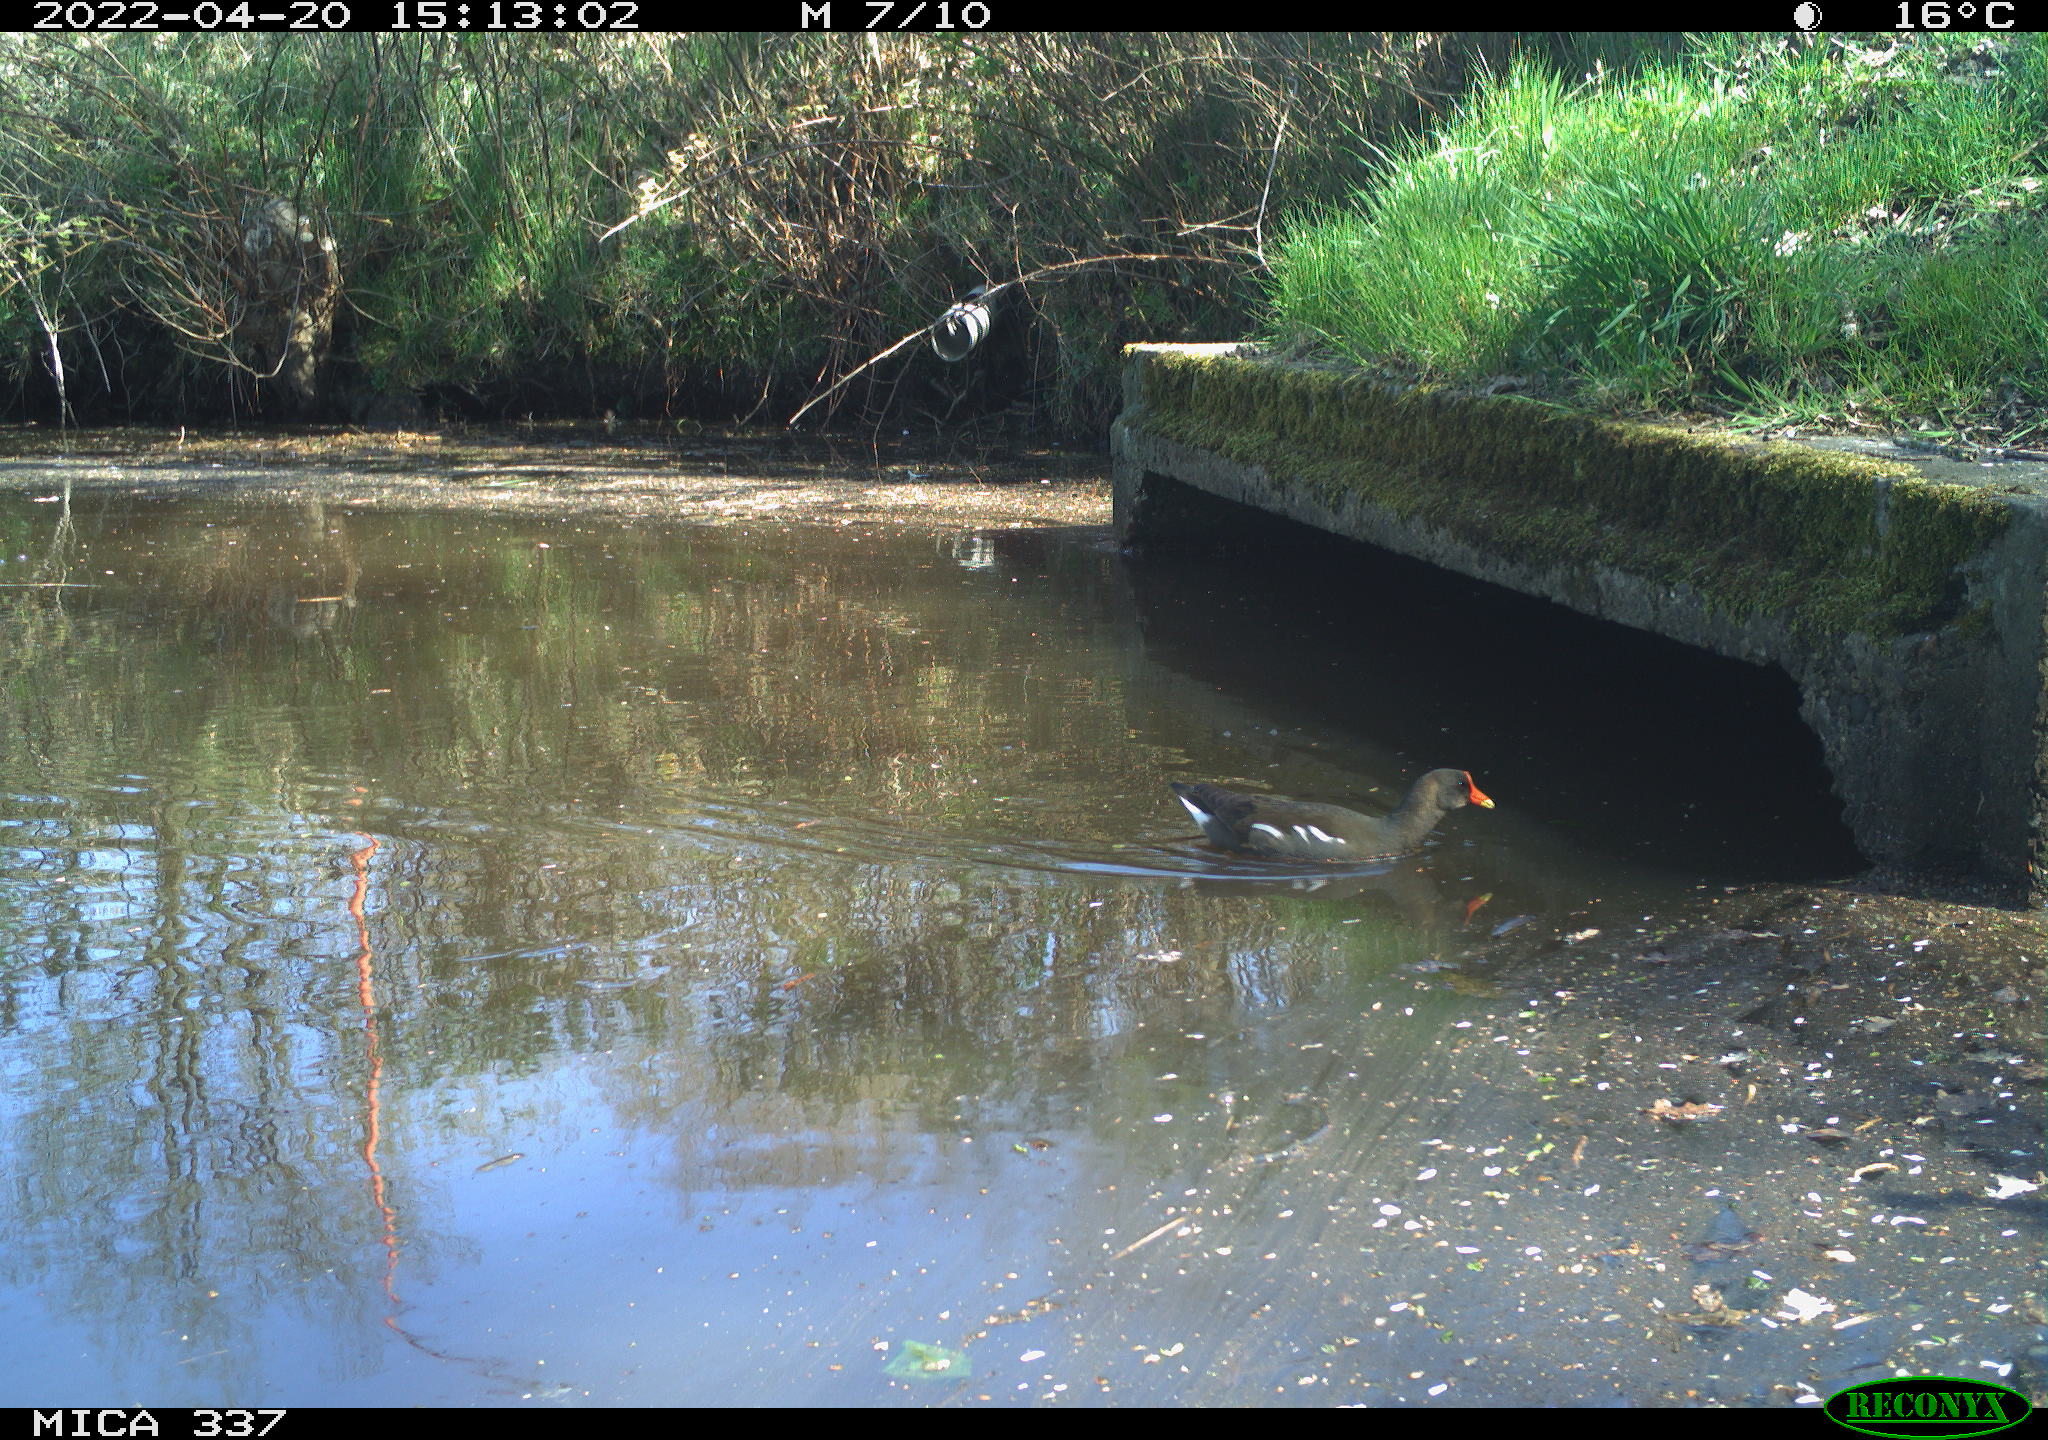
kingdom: Animalia
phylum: Chordata
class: Aves
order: Gruiformes
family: Rallidae
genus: Gallinula
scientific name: Gallinula chloropus
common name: Common moorhen
